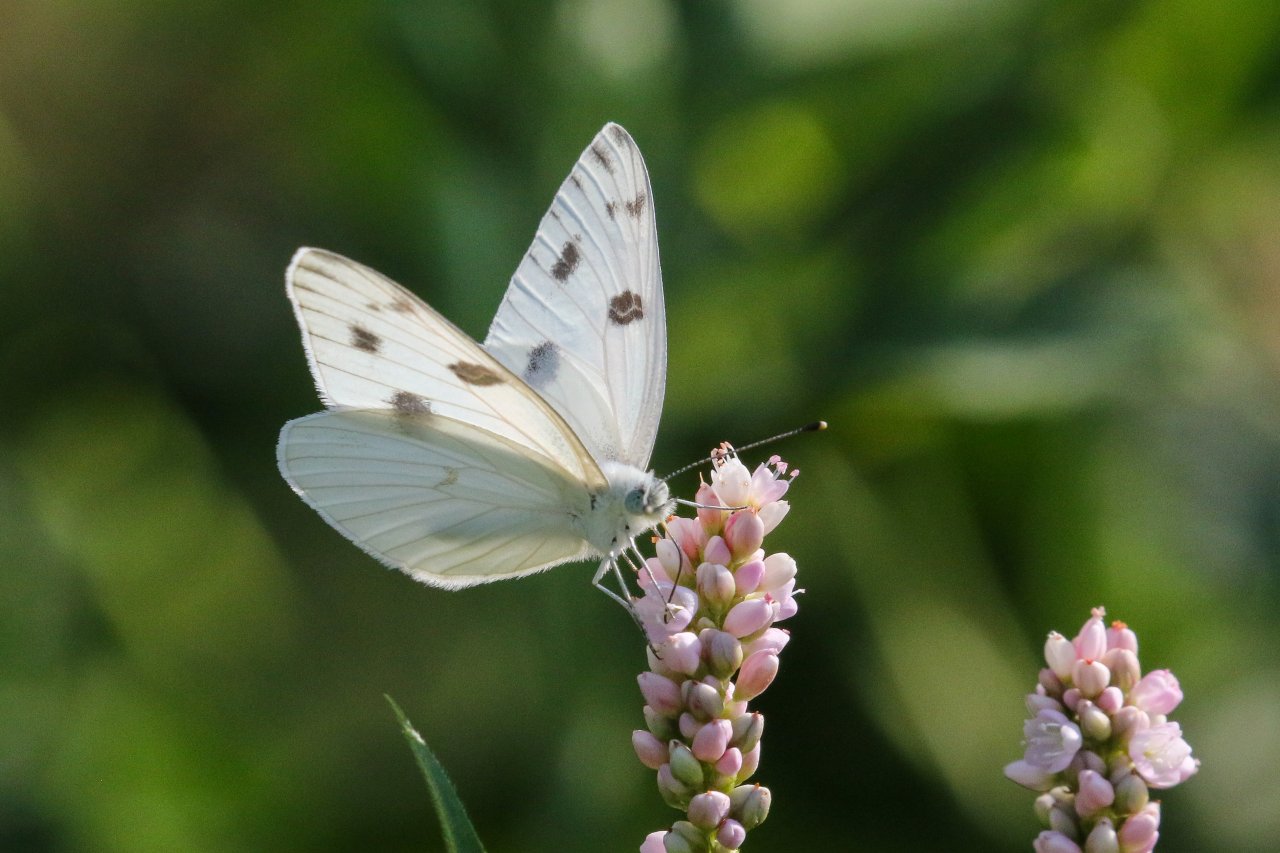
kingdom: Animalia
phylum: Arthropoda
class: Insecta
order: Lepidoptera
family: Pieridae
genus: Pontia
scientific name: Pontia protodice
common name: Checkered White
